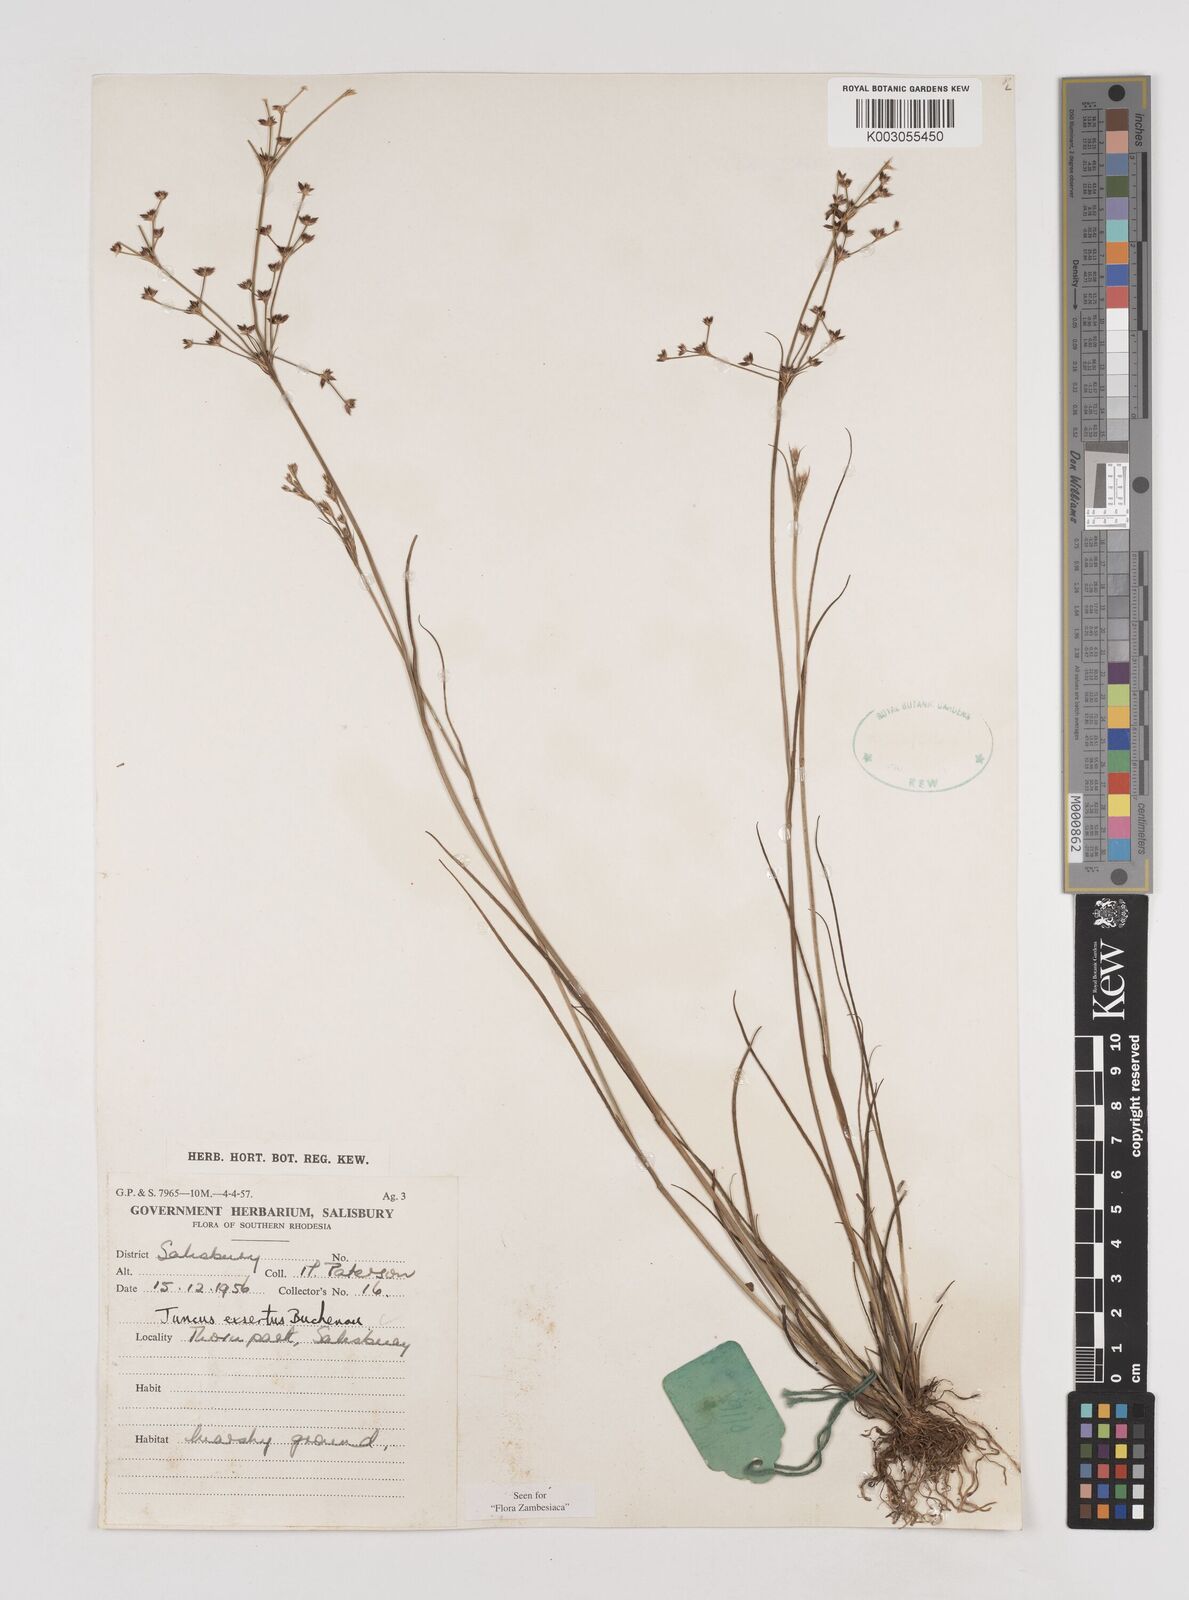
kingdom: Plantae
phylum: Tracheophyta
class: Liliopsida
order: Poales
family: Juncaceae
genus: Juncus
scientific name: Juncus exsertus
